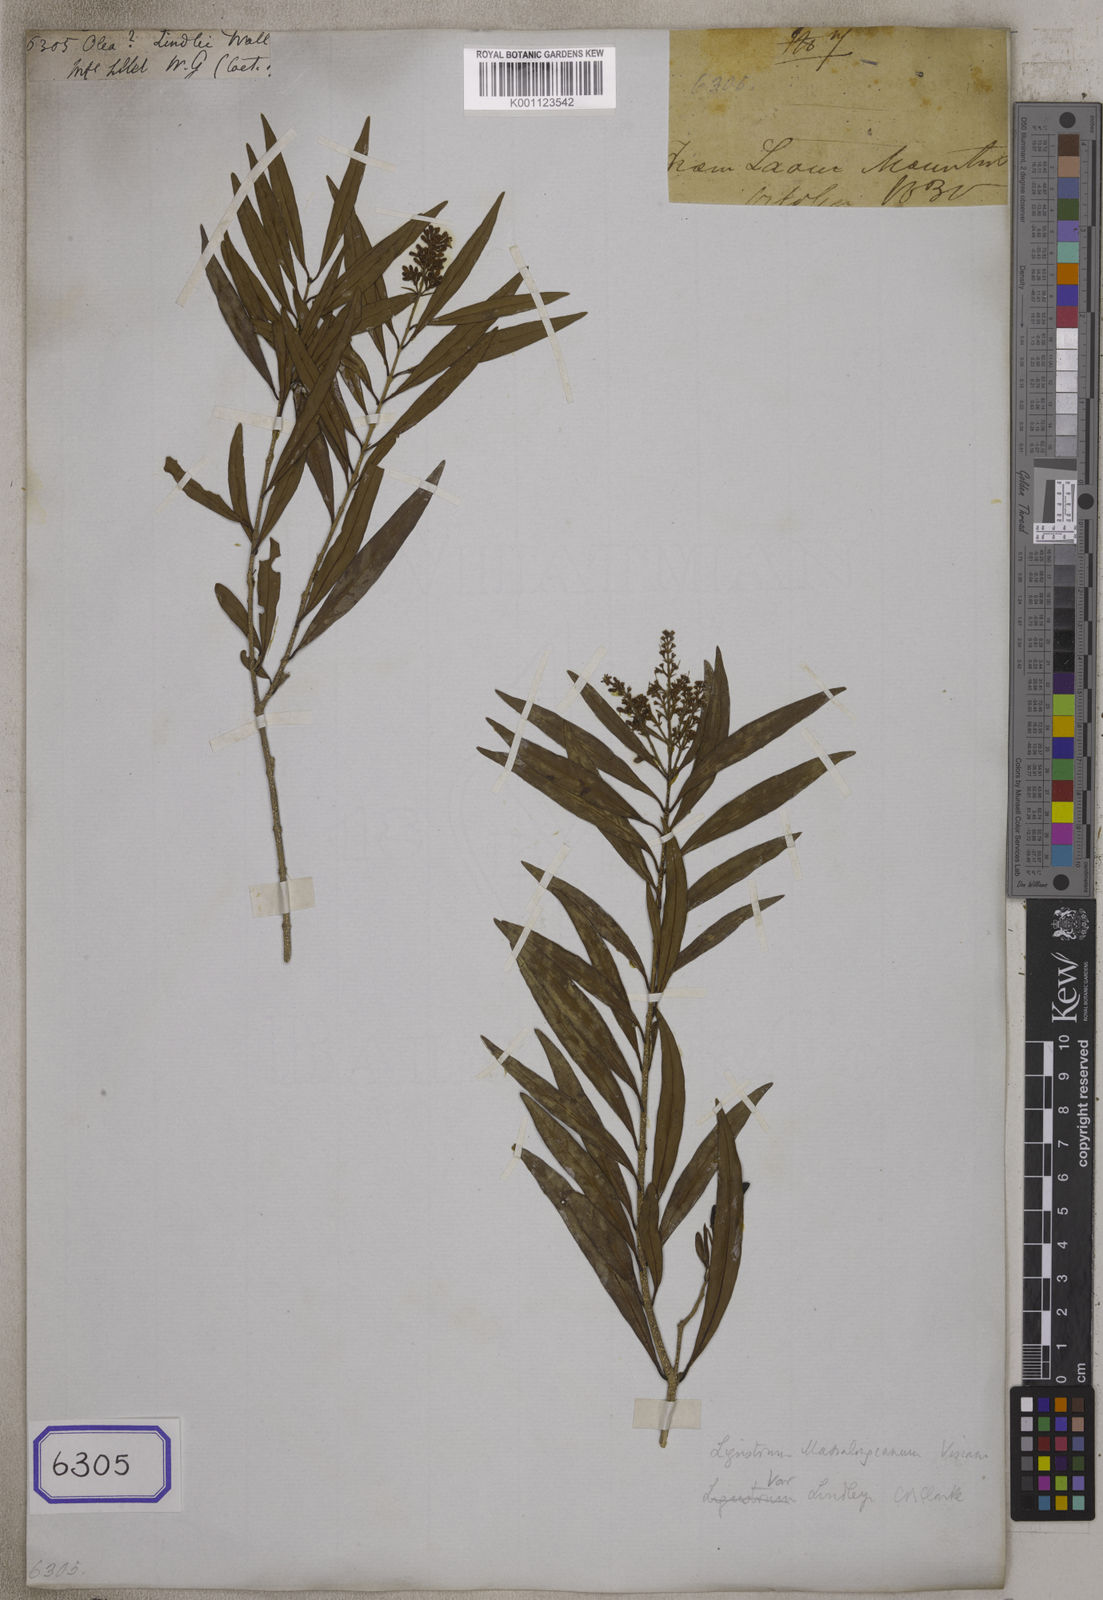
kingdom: Plantae
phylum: Tracheophyta
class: Magnoliopsida
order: Lamiales
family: Oleaceae
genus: Olea
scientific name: Olea
